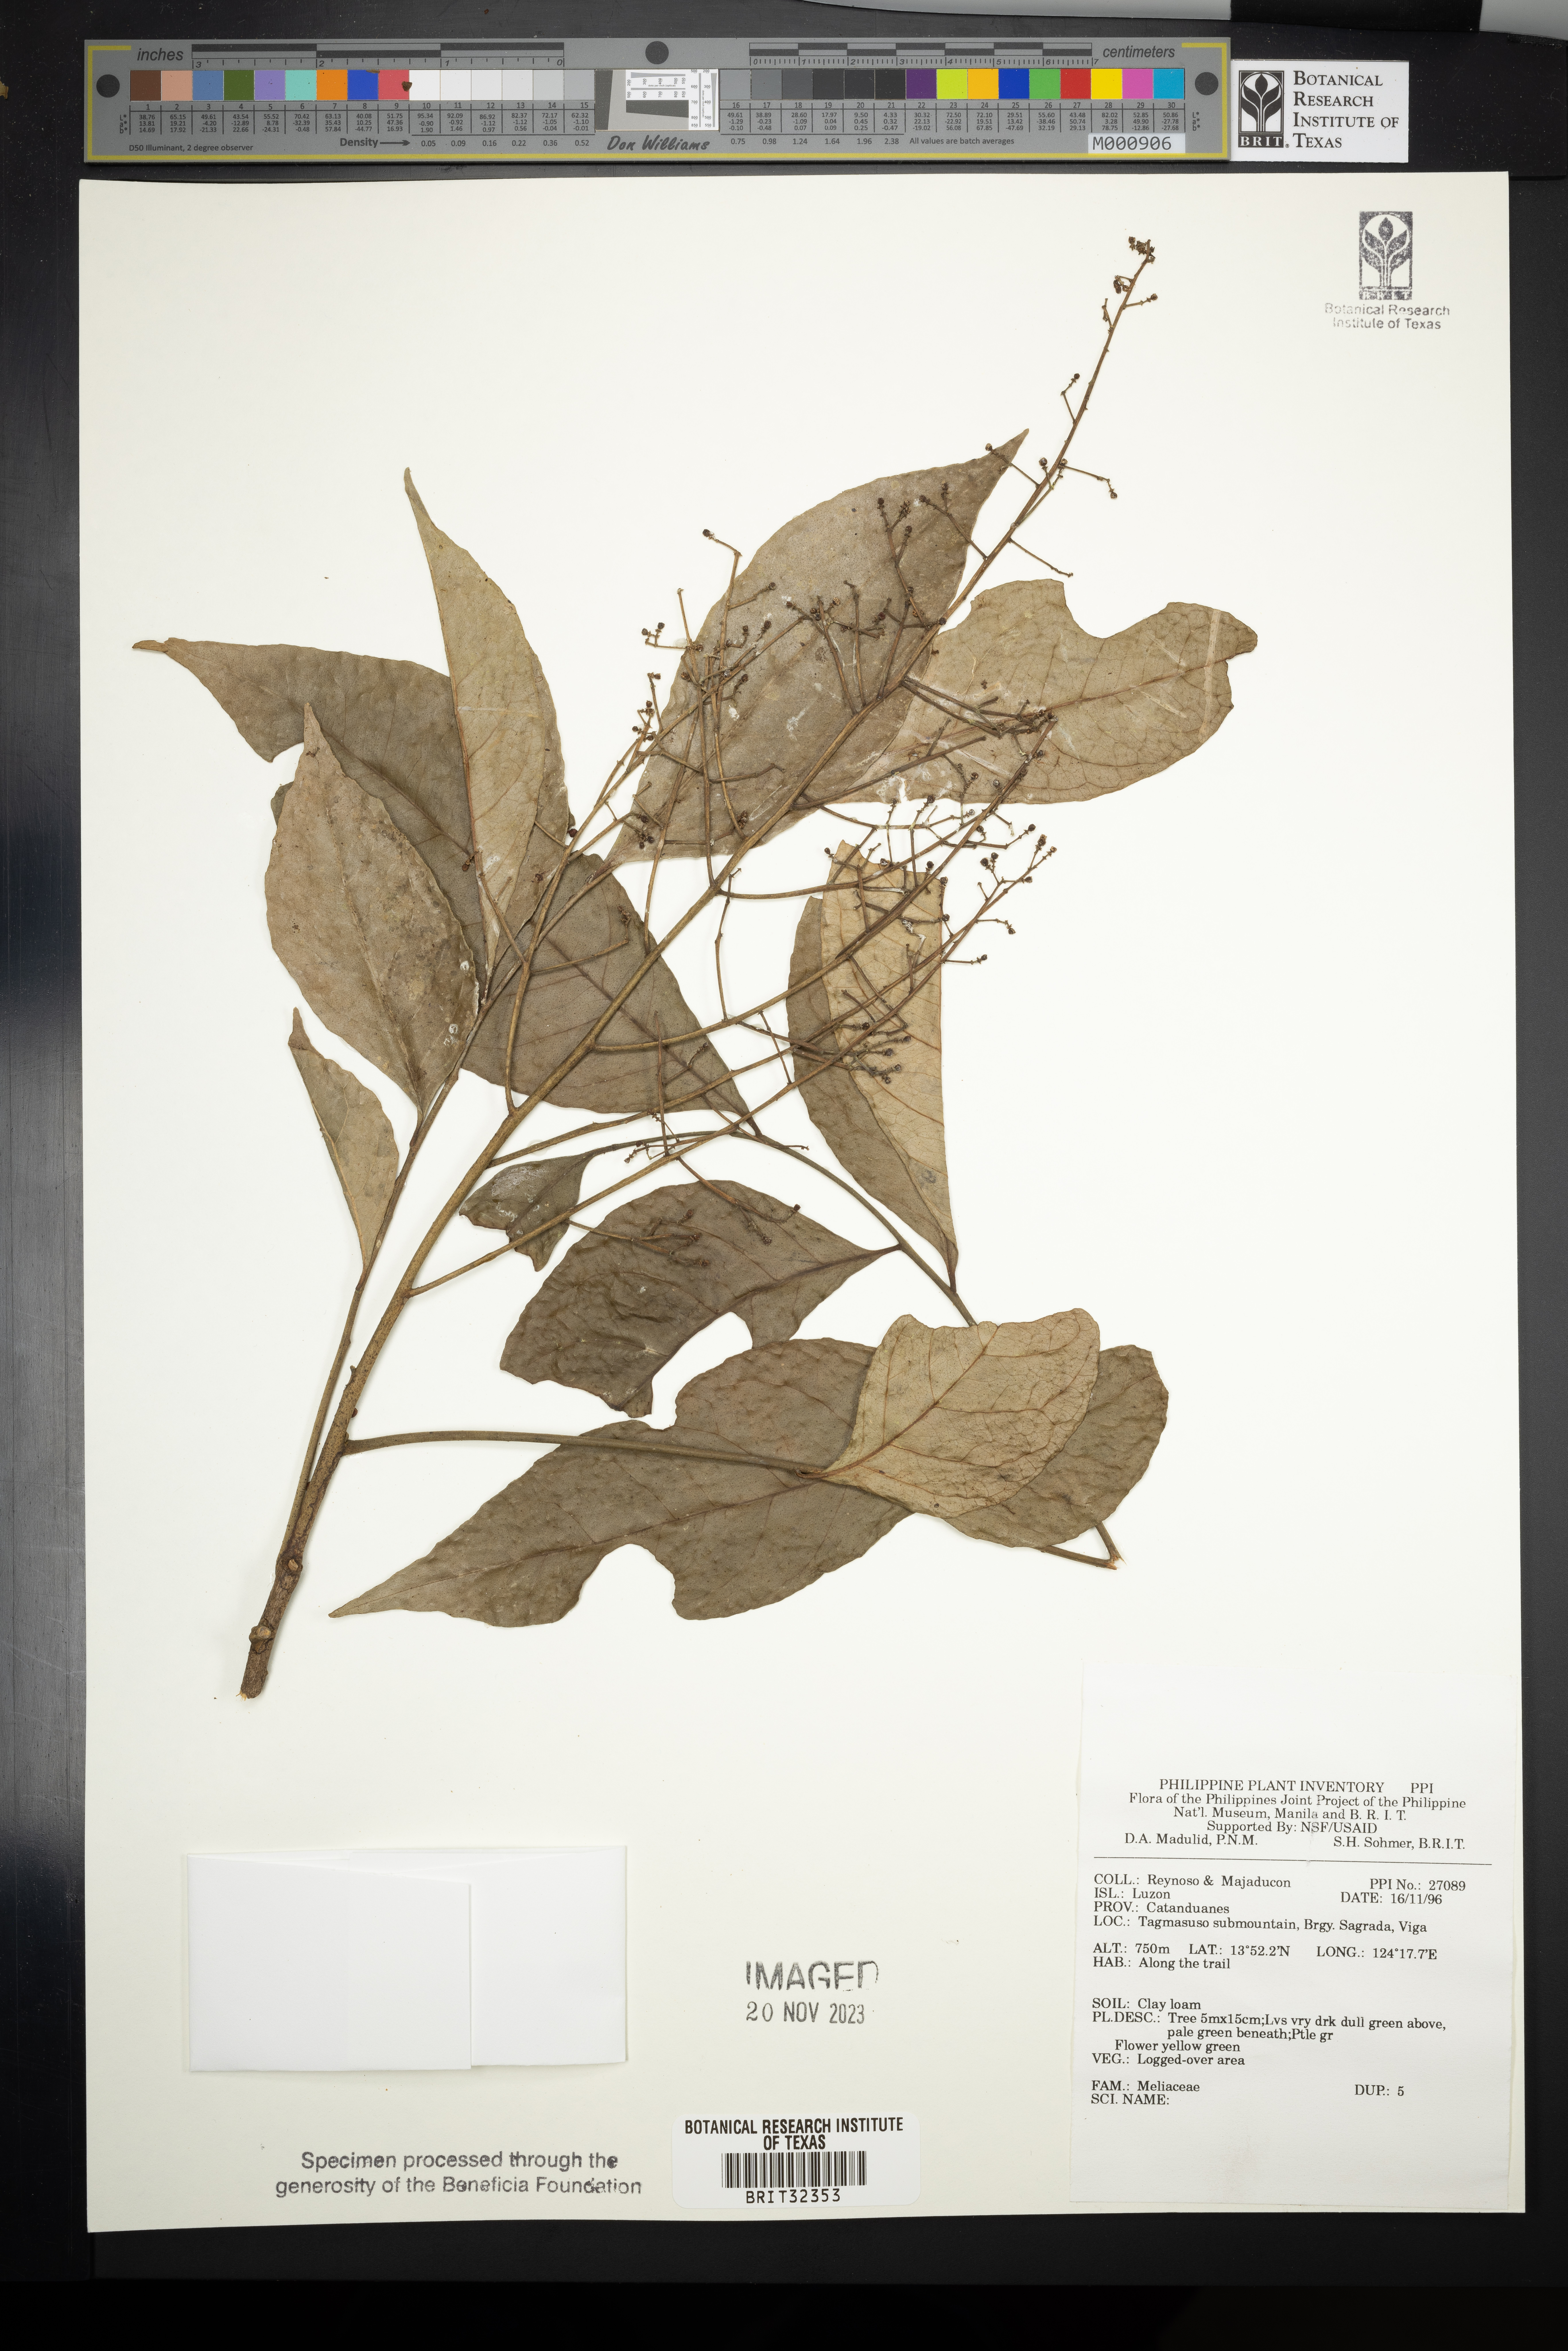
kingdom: Plantae
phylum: Tracheophyta
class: Magnoliopsida
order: Sapindales
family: Meliaceae
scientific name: Meliaceae
